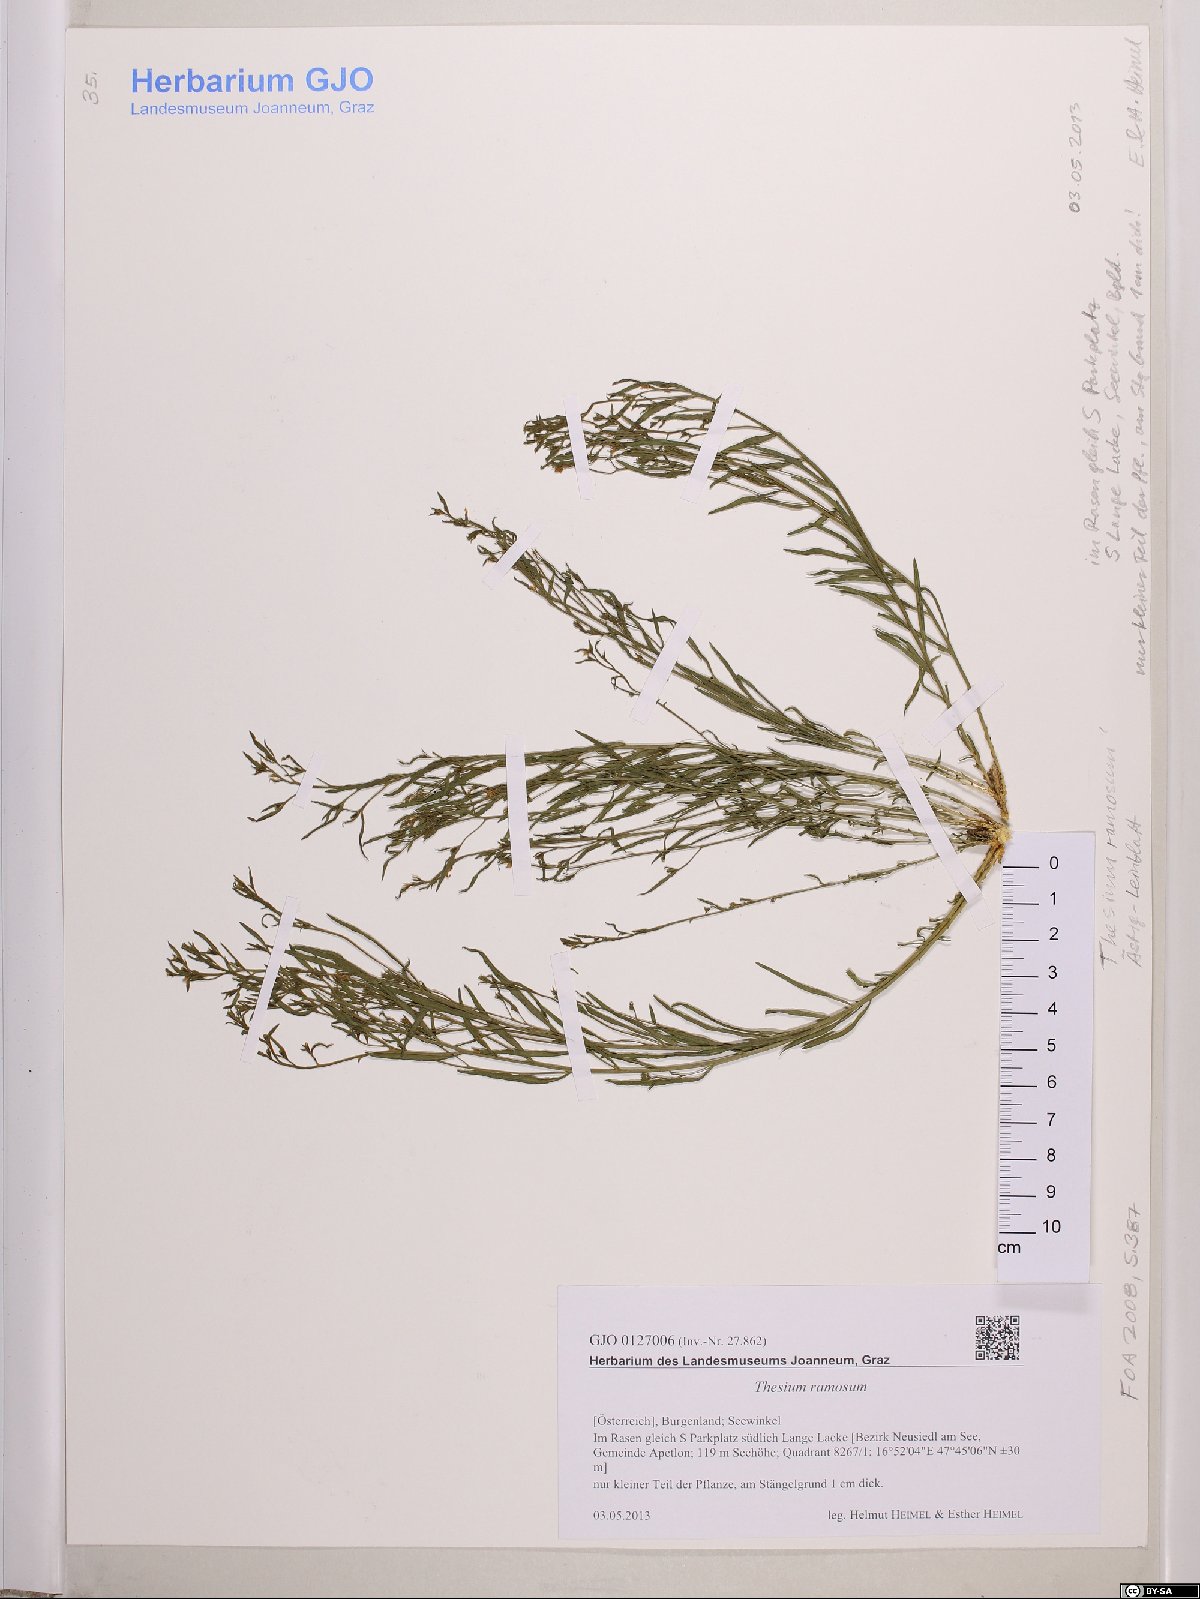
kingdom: Plantae
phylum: Tracheophyta
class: Magnoliopsida
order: Santalales
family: Thesiaceae
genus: Thesium
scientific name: Thesium ramosum
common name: Field thesium
